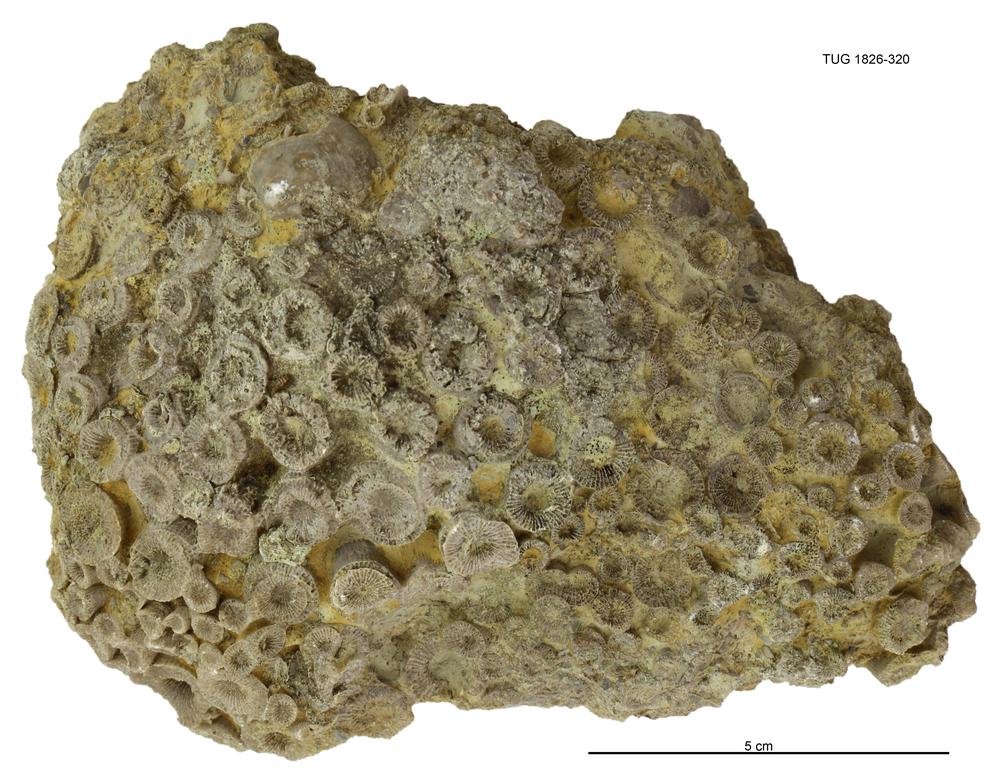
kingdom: Animalia
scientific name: Animalia
